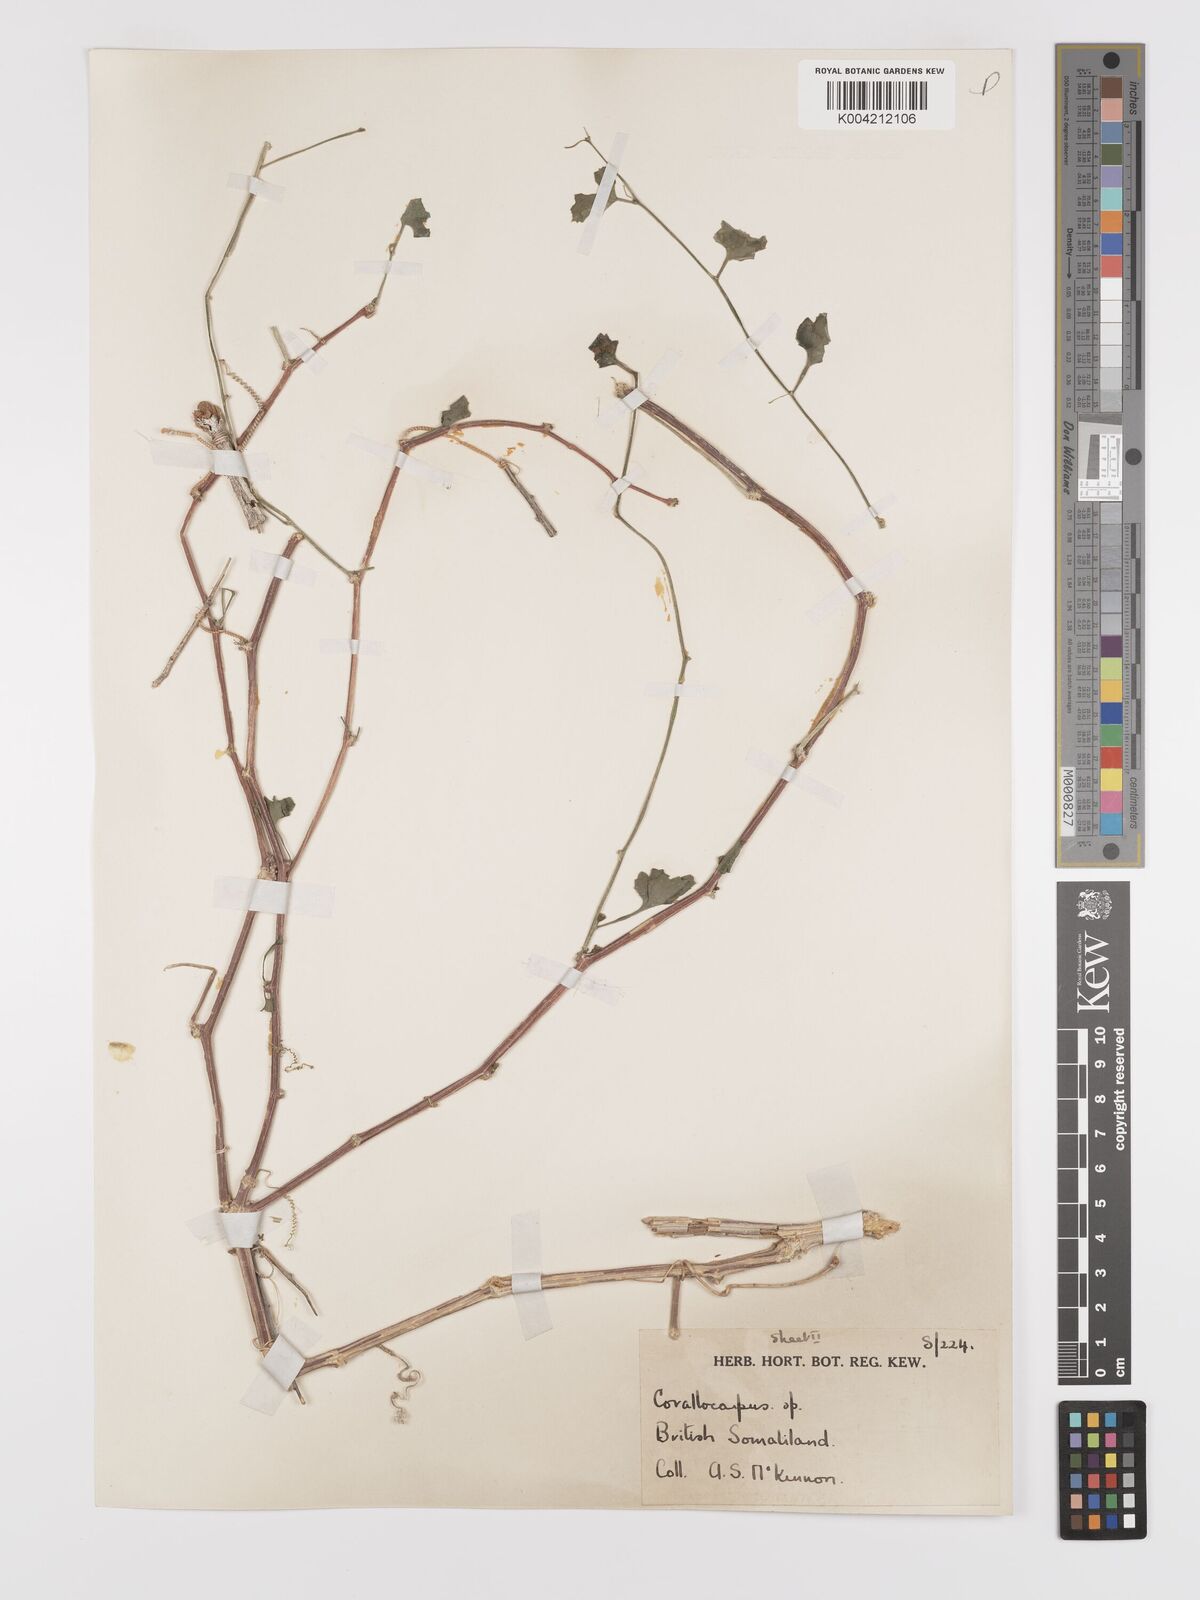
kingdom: Plantae
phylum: Tracheophyta
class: Magnoliopsida
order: Cucurbitales
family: Cucurbitaceae
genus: Kedrostis
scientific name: Kedrostis gijef
